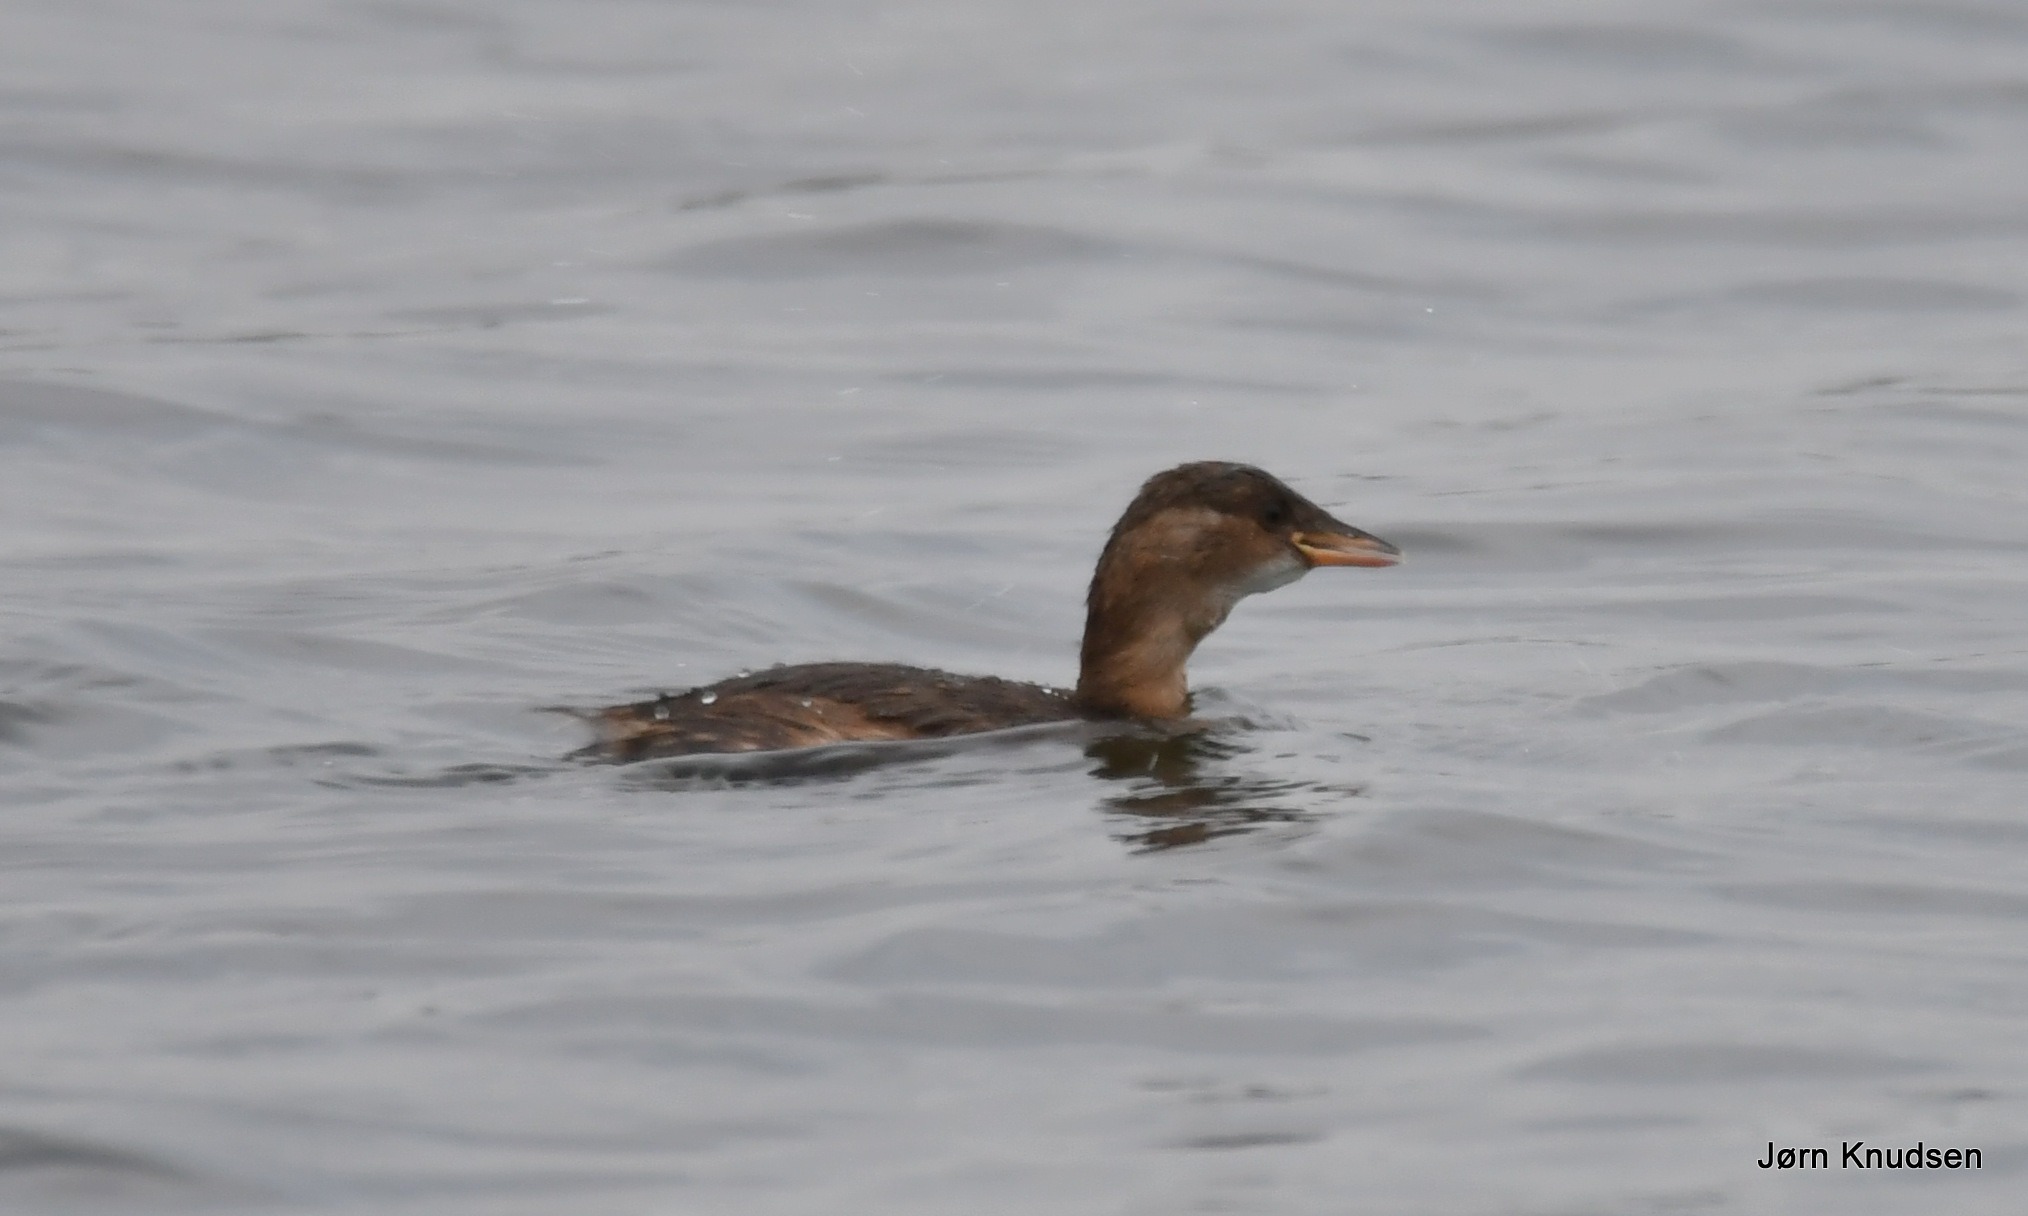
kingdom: Animalia
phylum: Chordata
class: Aves
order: Podicipediformes
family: Podicipedidae
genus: Tachybaptus
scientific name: Tachybaptus ruficollis
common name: Lille lappedykker
